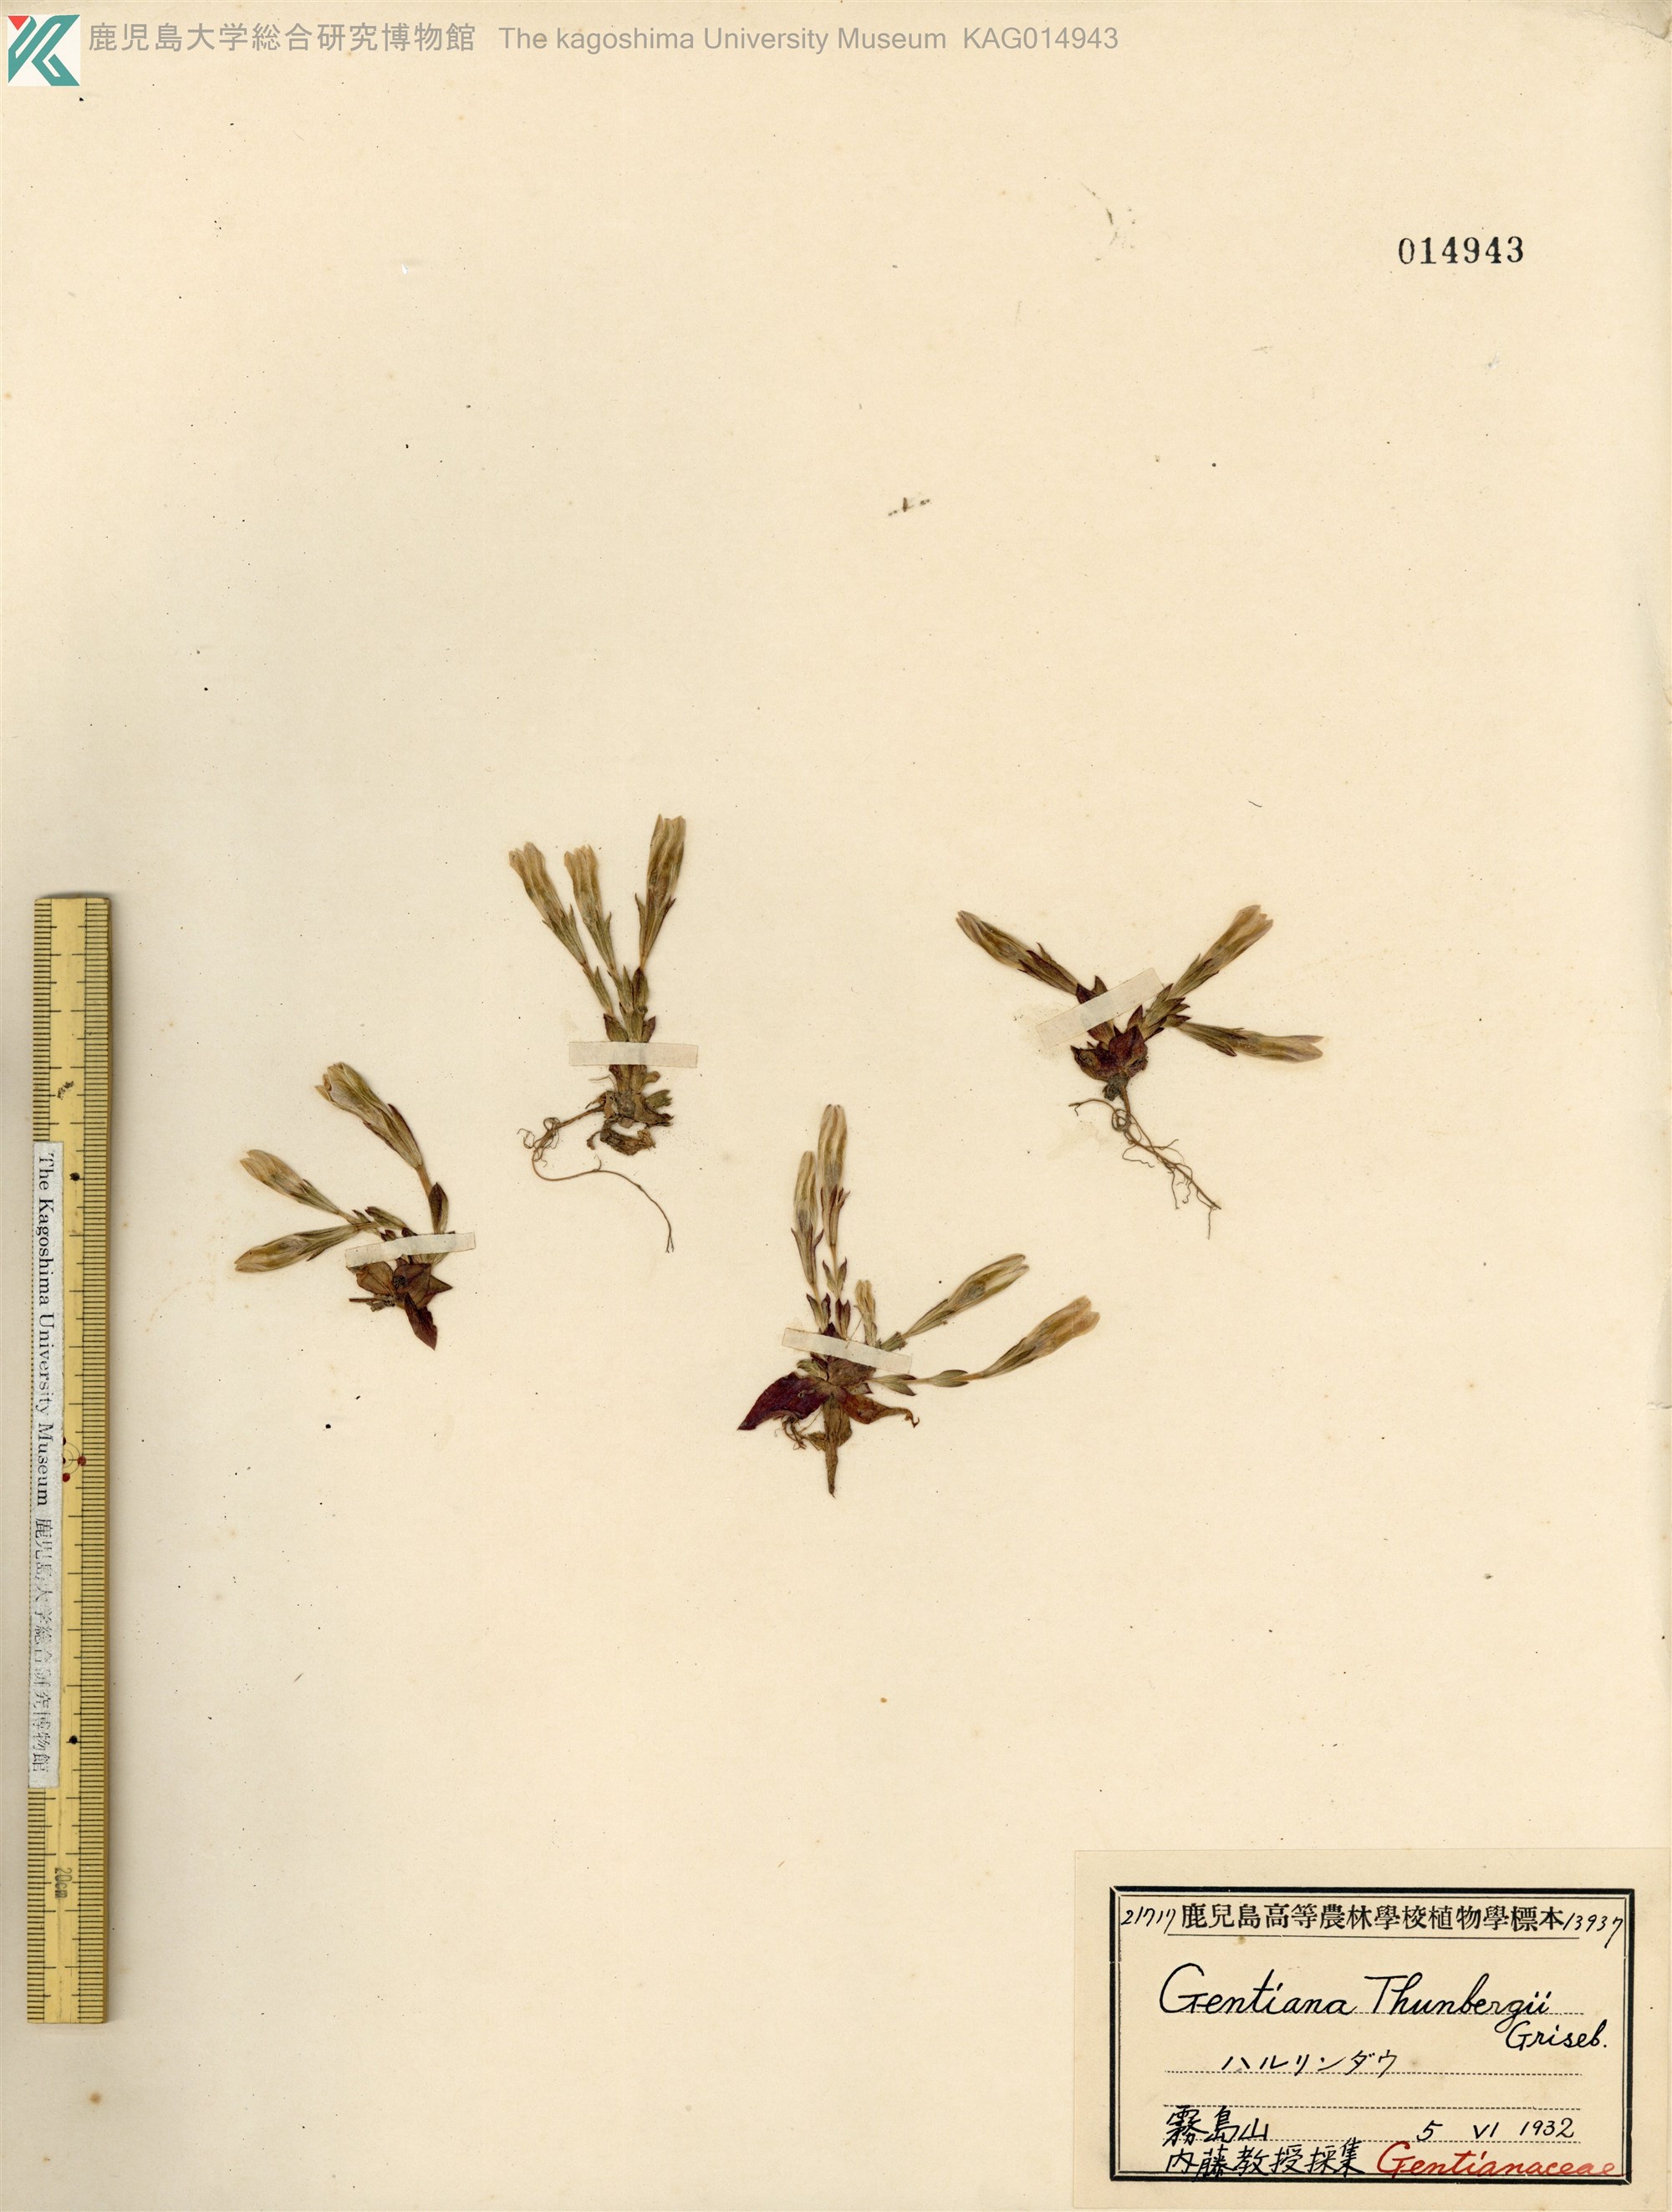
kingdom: Plantae
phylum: Tracheophyta
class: Magnoliopsida
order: Gentianales
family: Gentianaceae
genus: Gentiana
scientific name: Gentiana thunbergii
